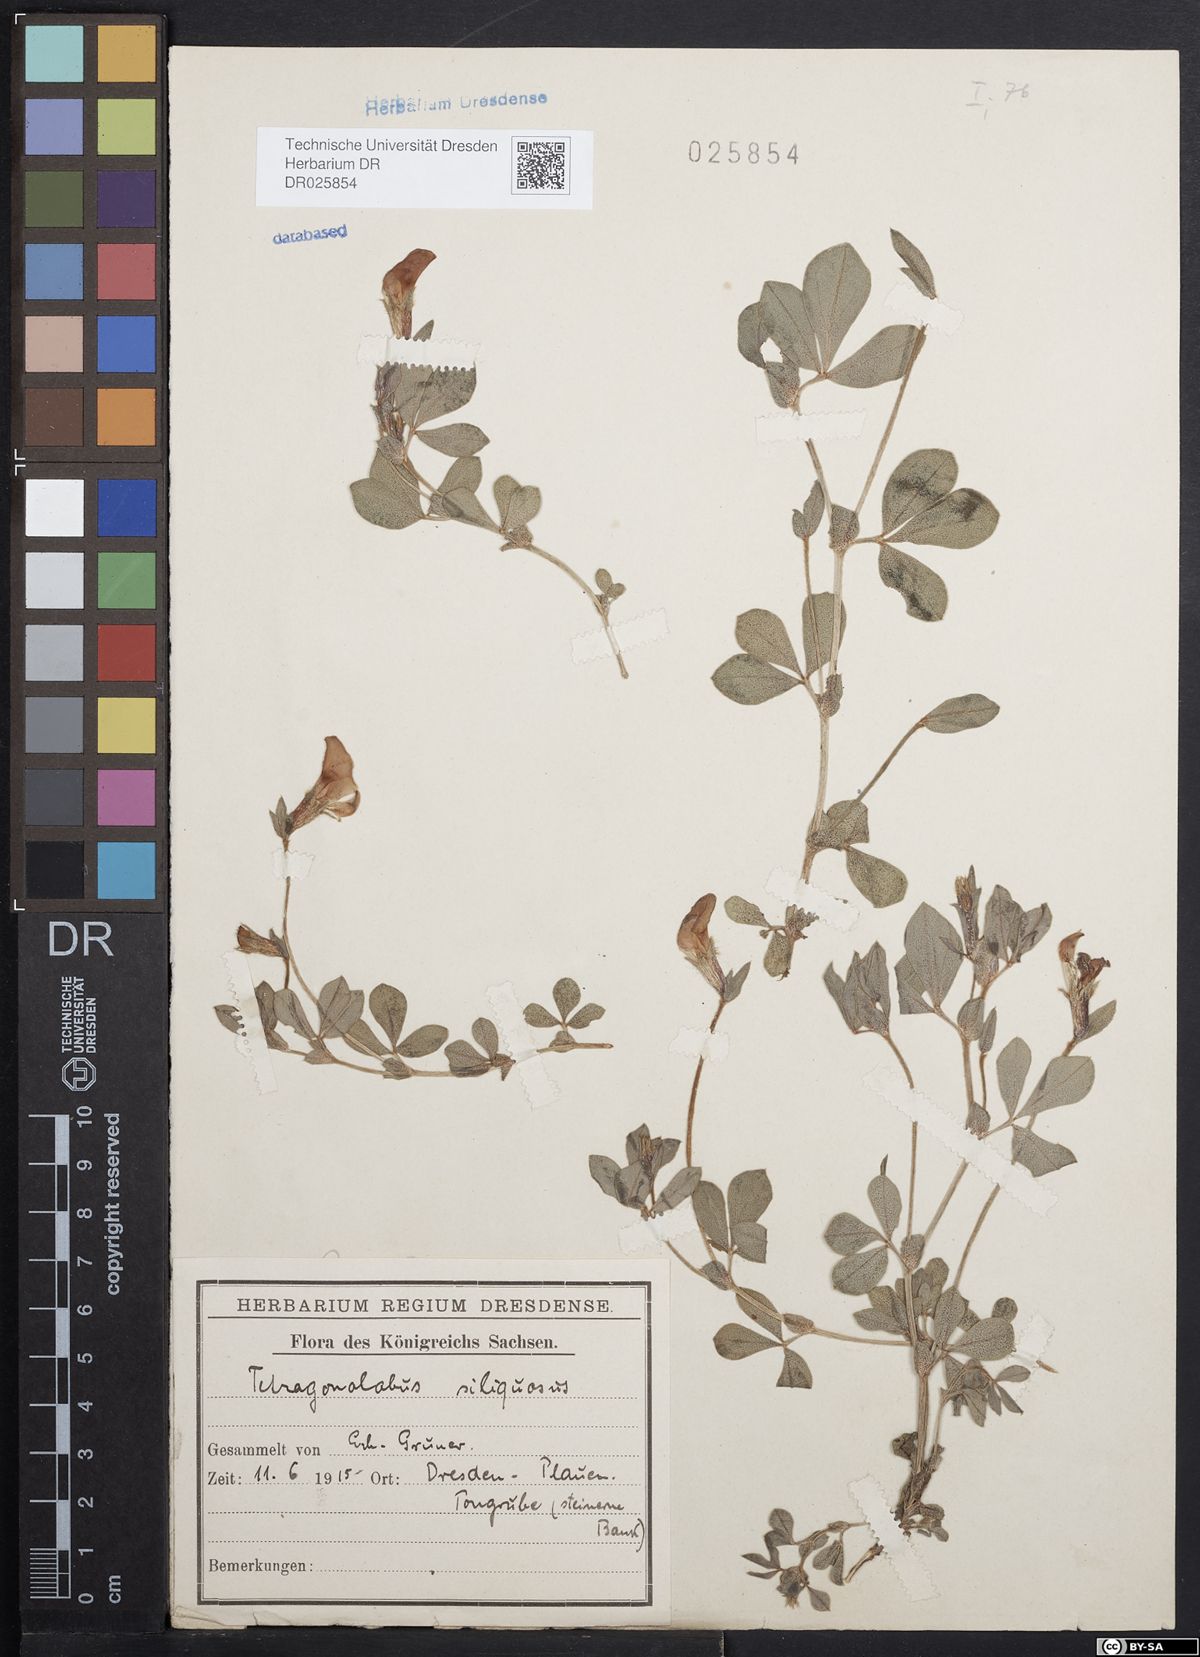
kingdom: Plantae
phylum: Tracheophyta
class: Magnoliopsida
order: Fabales
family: Fabaceae
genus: Lotus
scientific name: Lotus maritimus
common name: Dragon's-teeth
